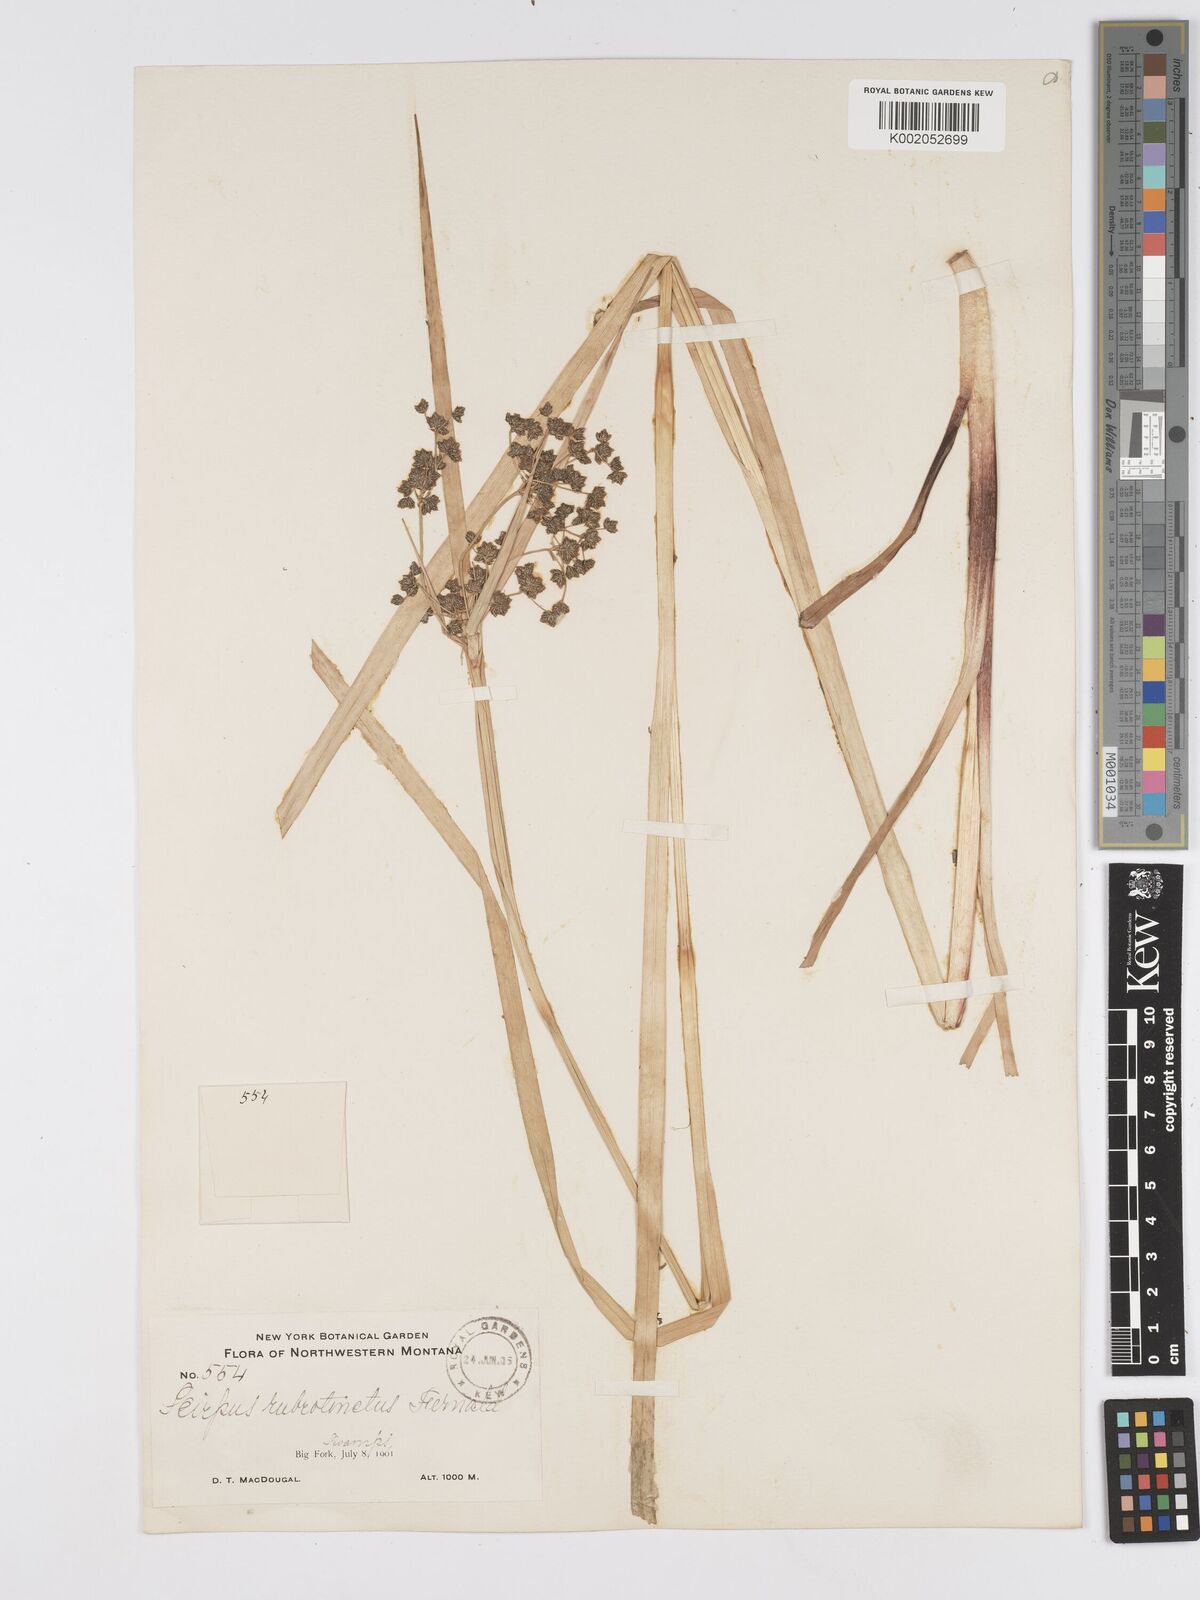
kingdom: Plantae
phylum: Tracheophyta
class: Liliopsida
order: Poales
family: Cyperaceae
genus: Scirpus
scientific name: Scirpus atrovirens
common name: Black bulrush
